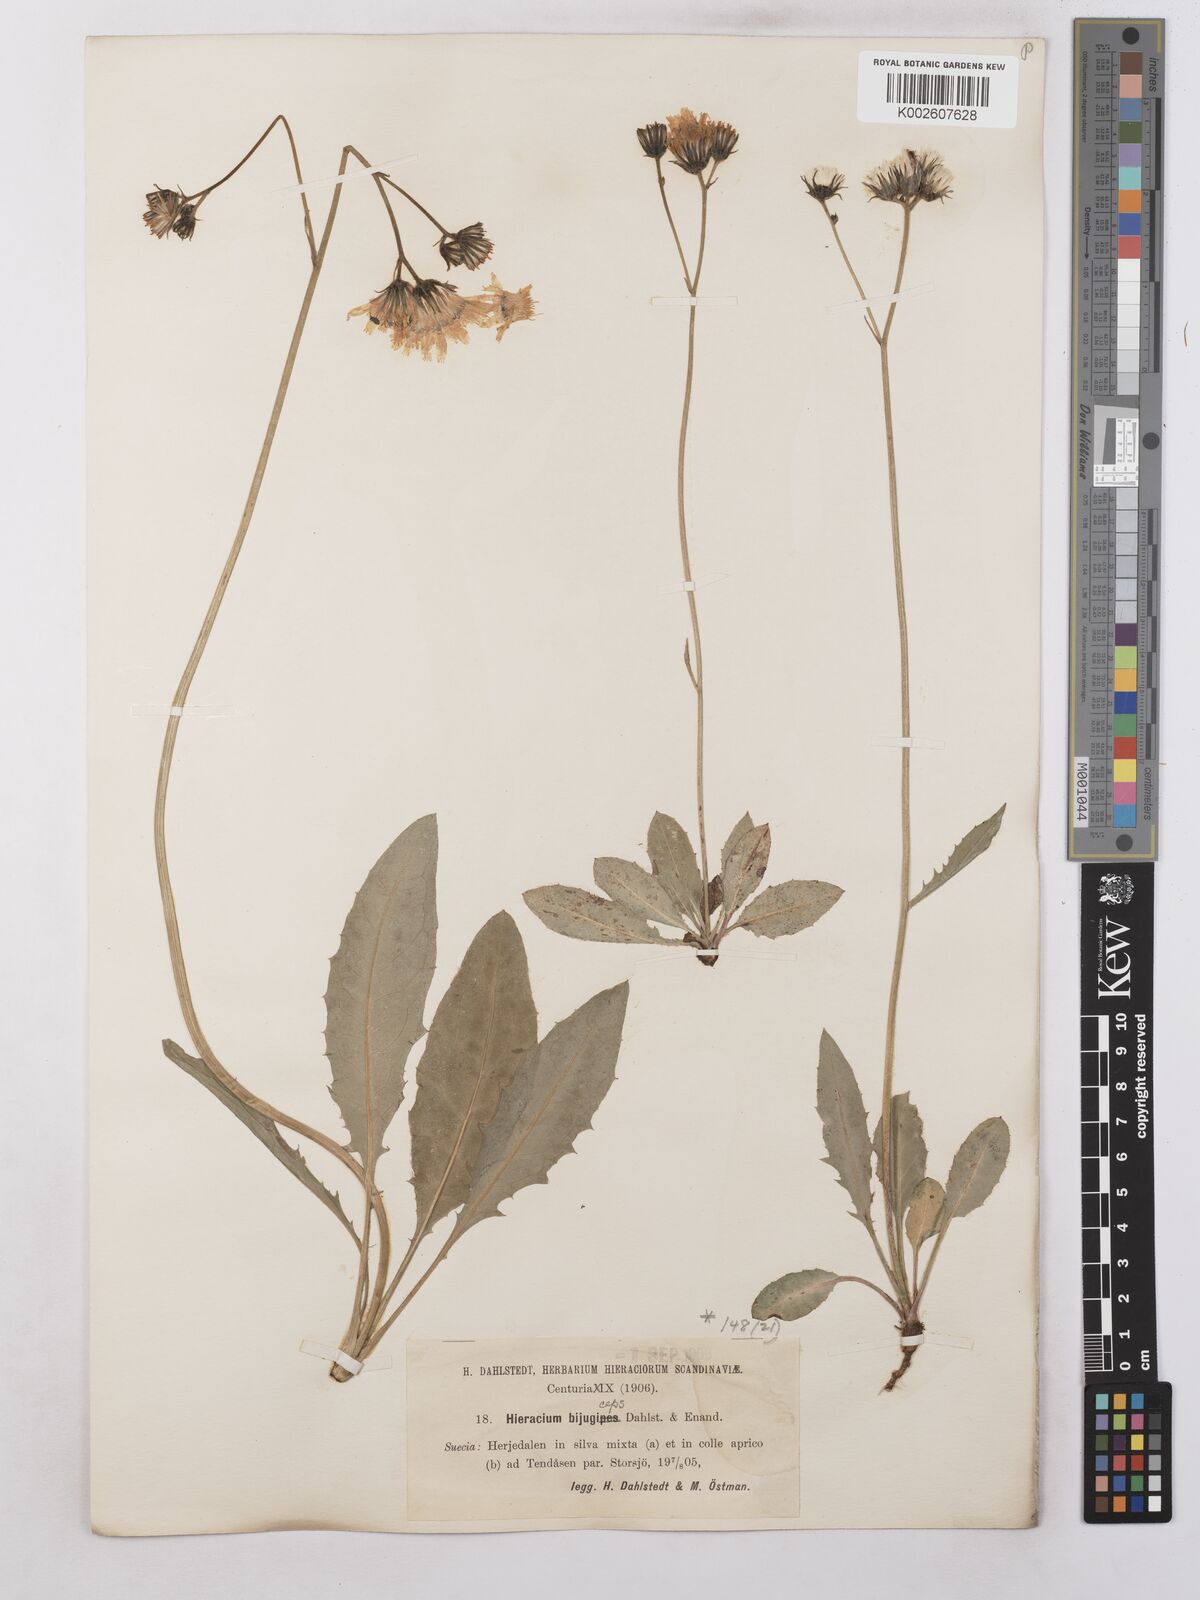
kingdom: Plantae
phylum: Tracheophyta
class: Magnoliopsida
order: Asterales
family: Asteraceae
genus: Hieracium
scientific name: Hieracium bijugipes
